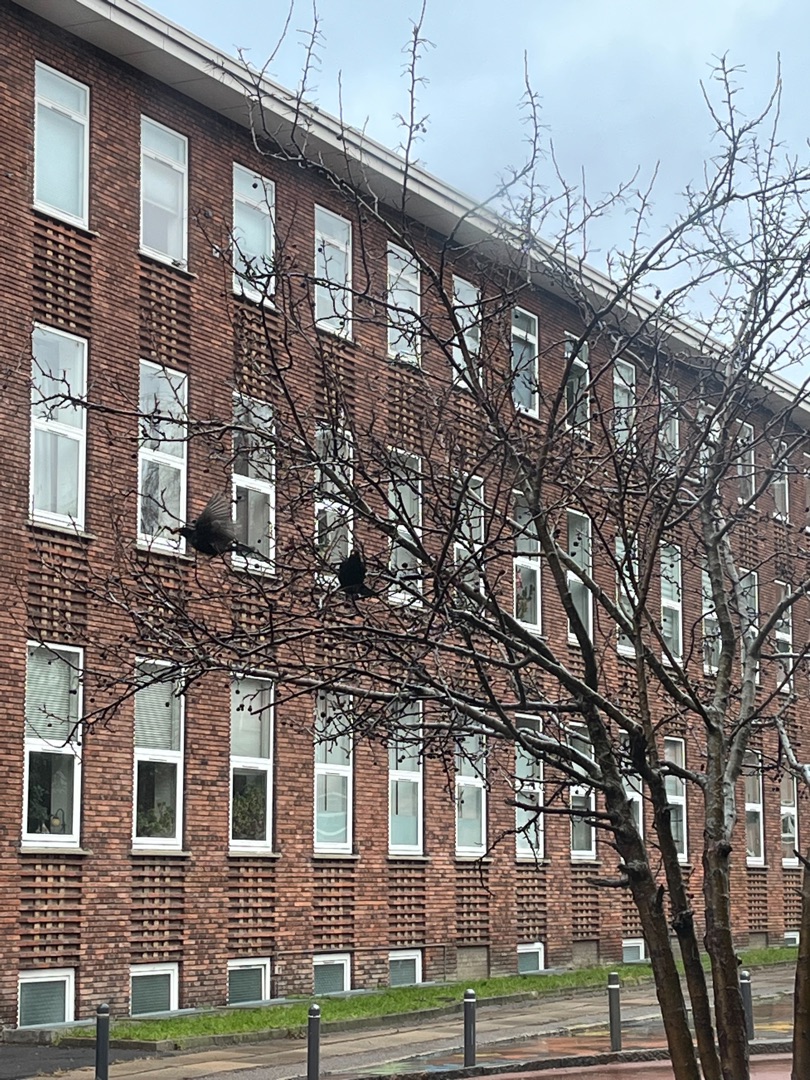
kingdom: Animalia
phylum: Chordata
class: Aves
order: Passeriformes
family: Turdidae
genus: Turdus
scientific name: Turdus merula
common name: Solsort
